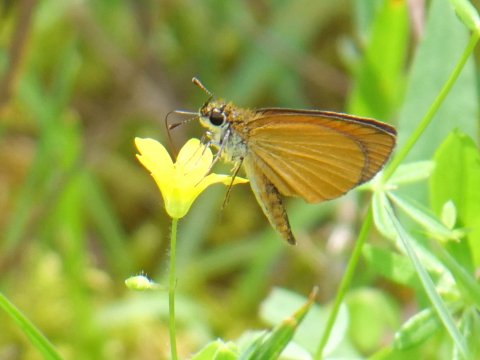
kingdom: Animalia
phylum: Arthropoda
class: Insecta
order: Lepidoptera
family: Hesperiidae
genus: Ancyloxypha
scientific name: Ancyloxypha numitor
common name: Least Skipper
